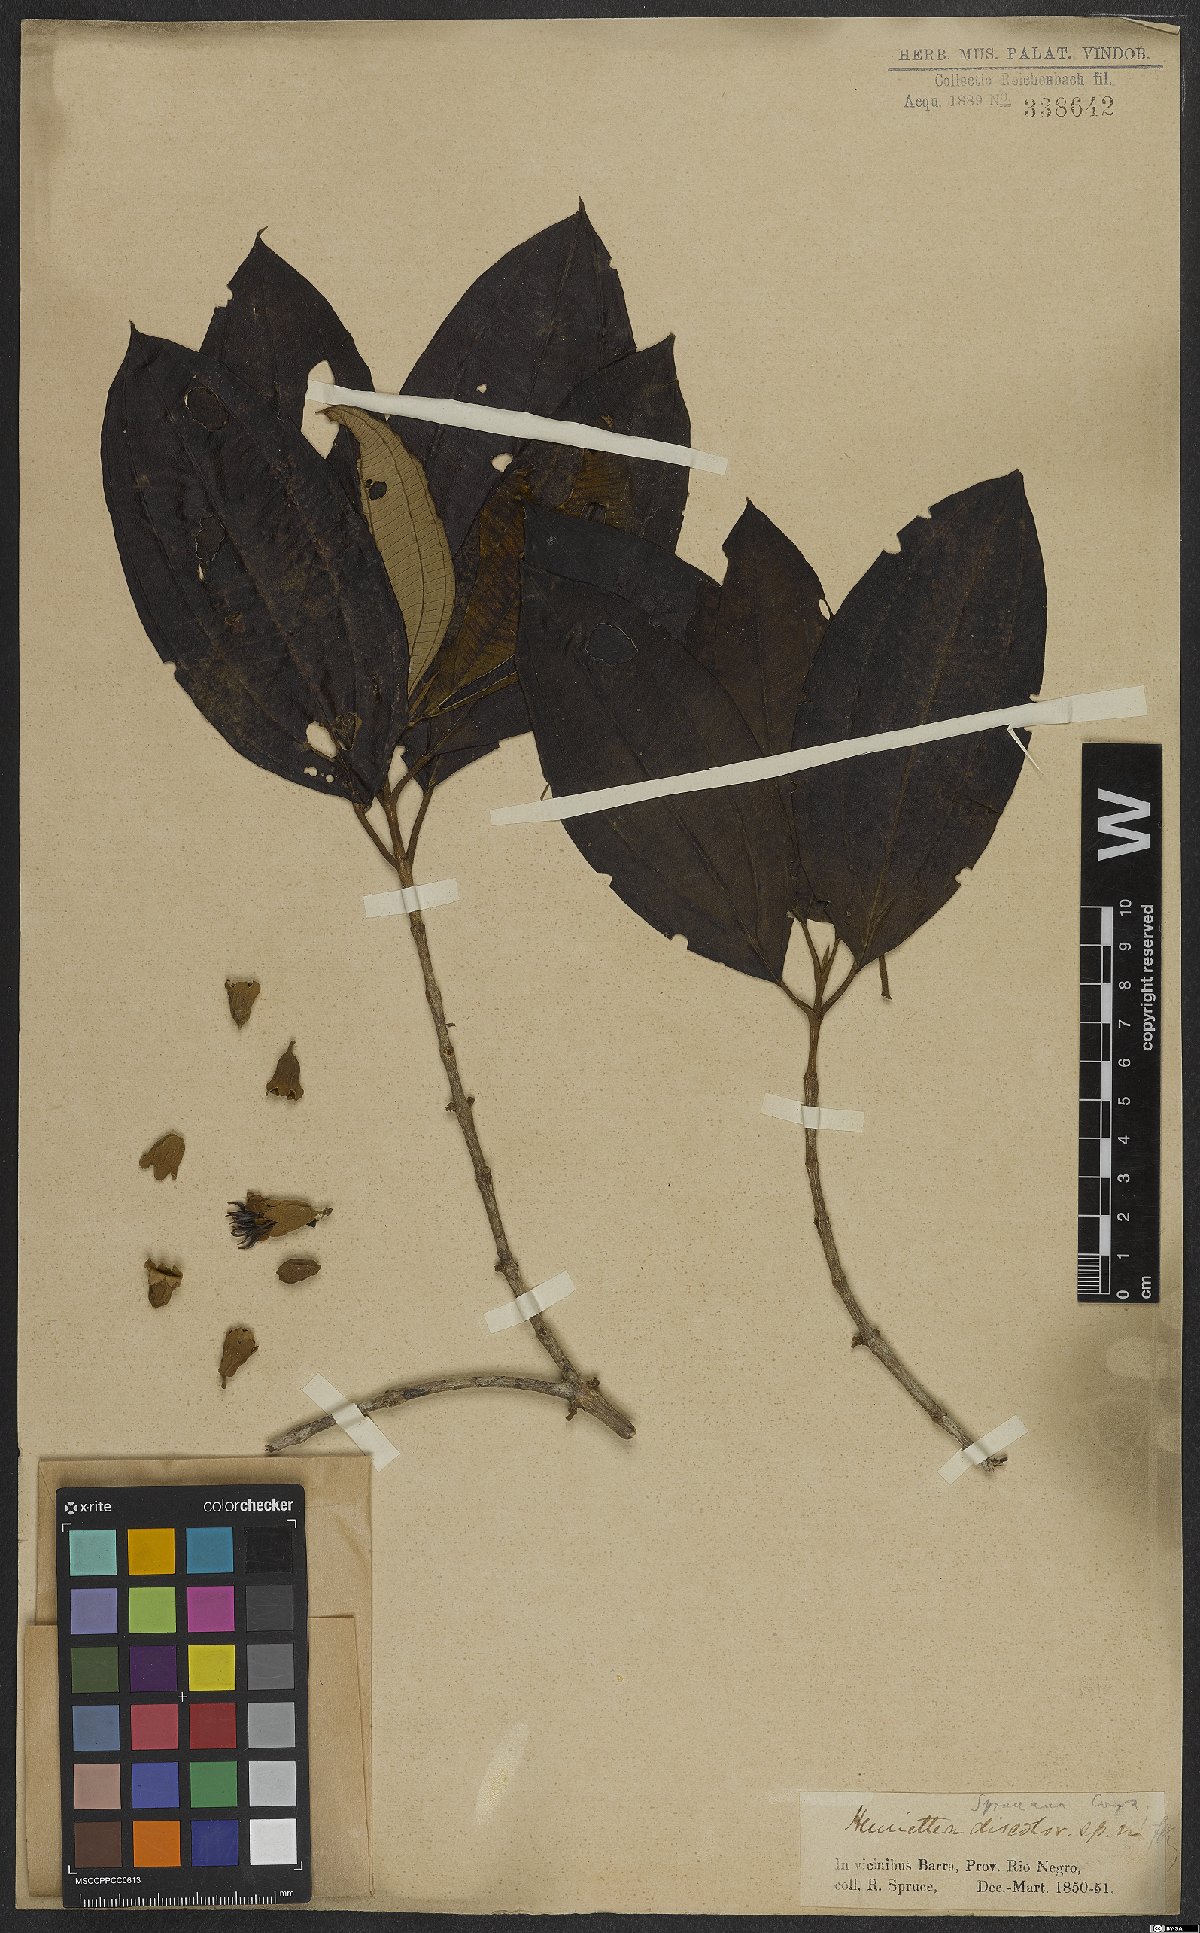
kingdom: Plantae
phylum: Tracheophyta
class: Magnoliopsida
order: Myrtales
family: Melastomataceae
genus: Henriettea
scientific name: Henriettea spruceana
